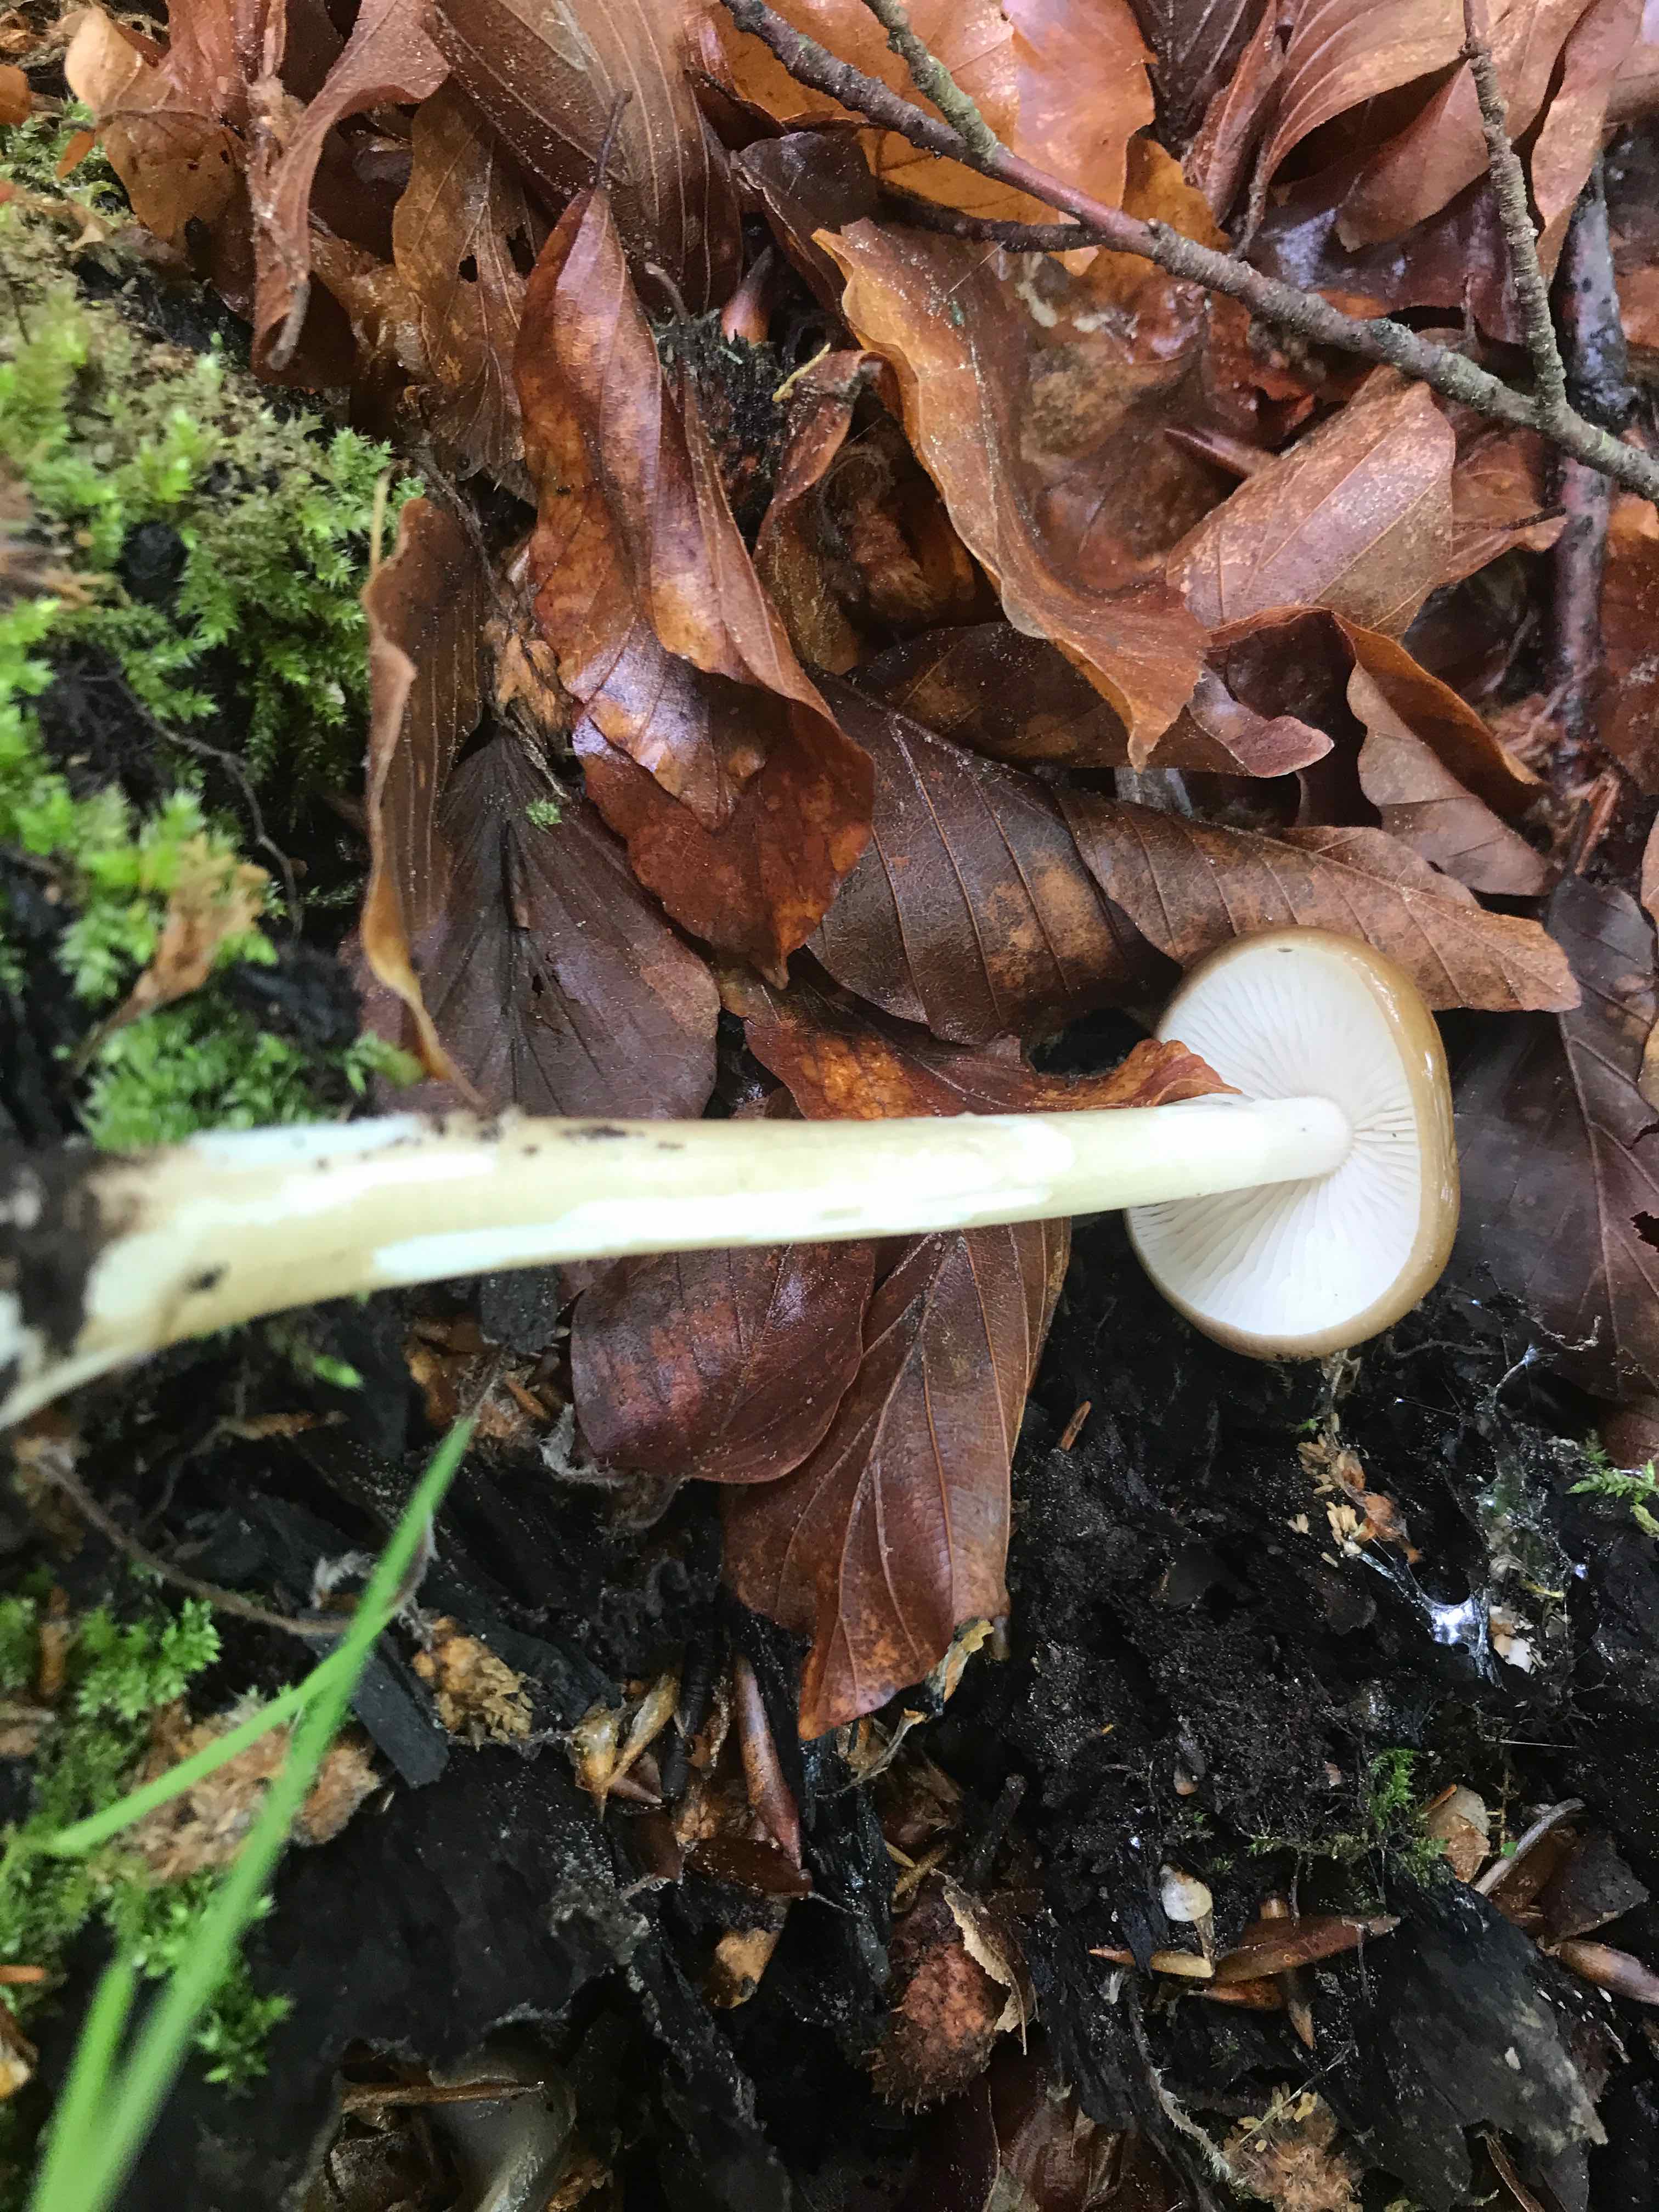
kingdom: Fungi
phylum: Basidiomycota
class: Agaricomycetes
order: Agaricales
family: Physalacriaceae
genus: Hymenopellis
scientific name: Hymenopellis radicata
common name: almindelig pælerodshat
